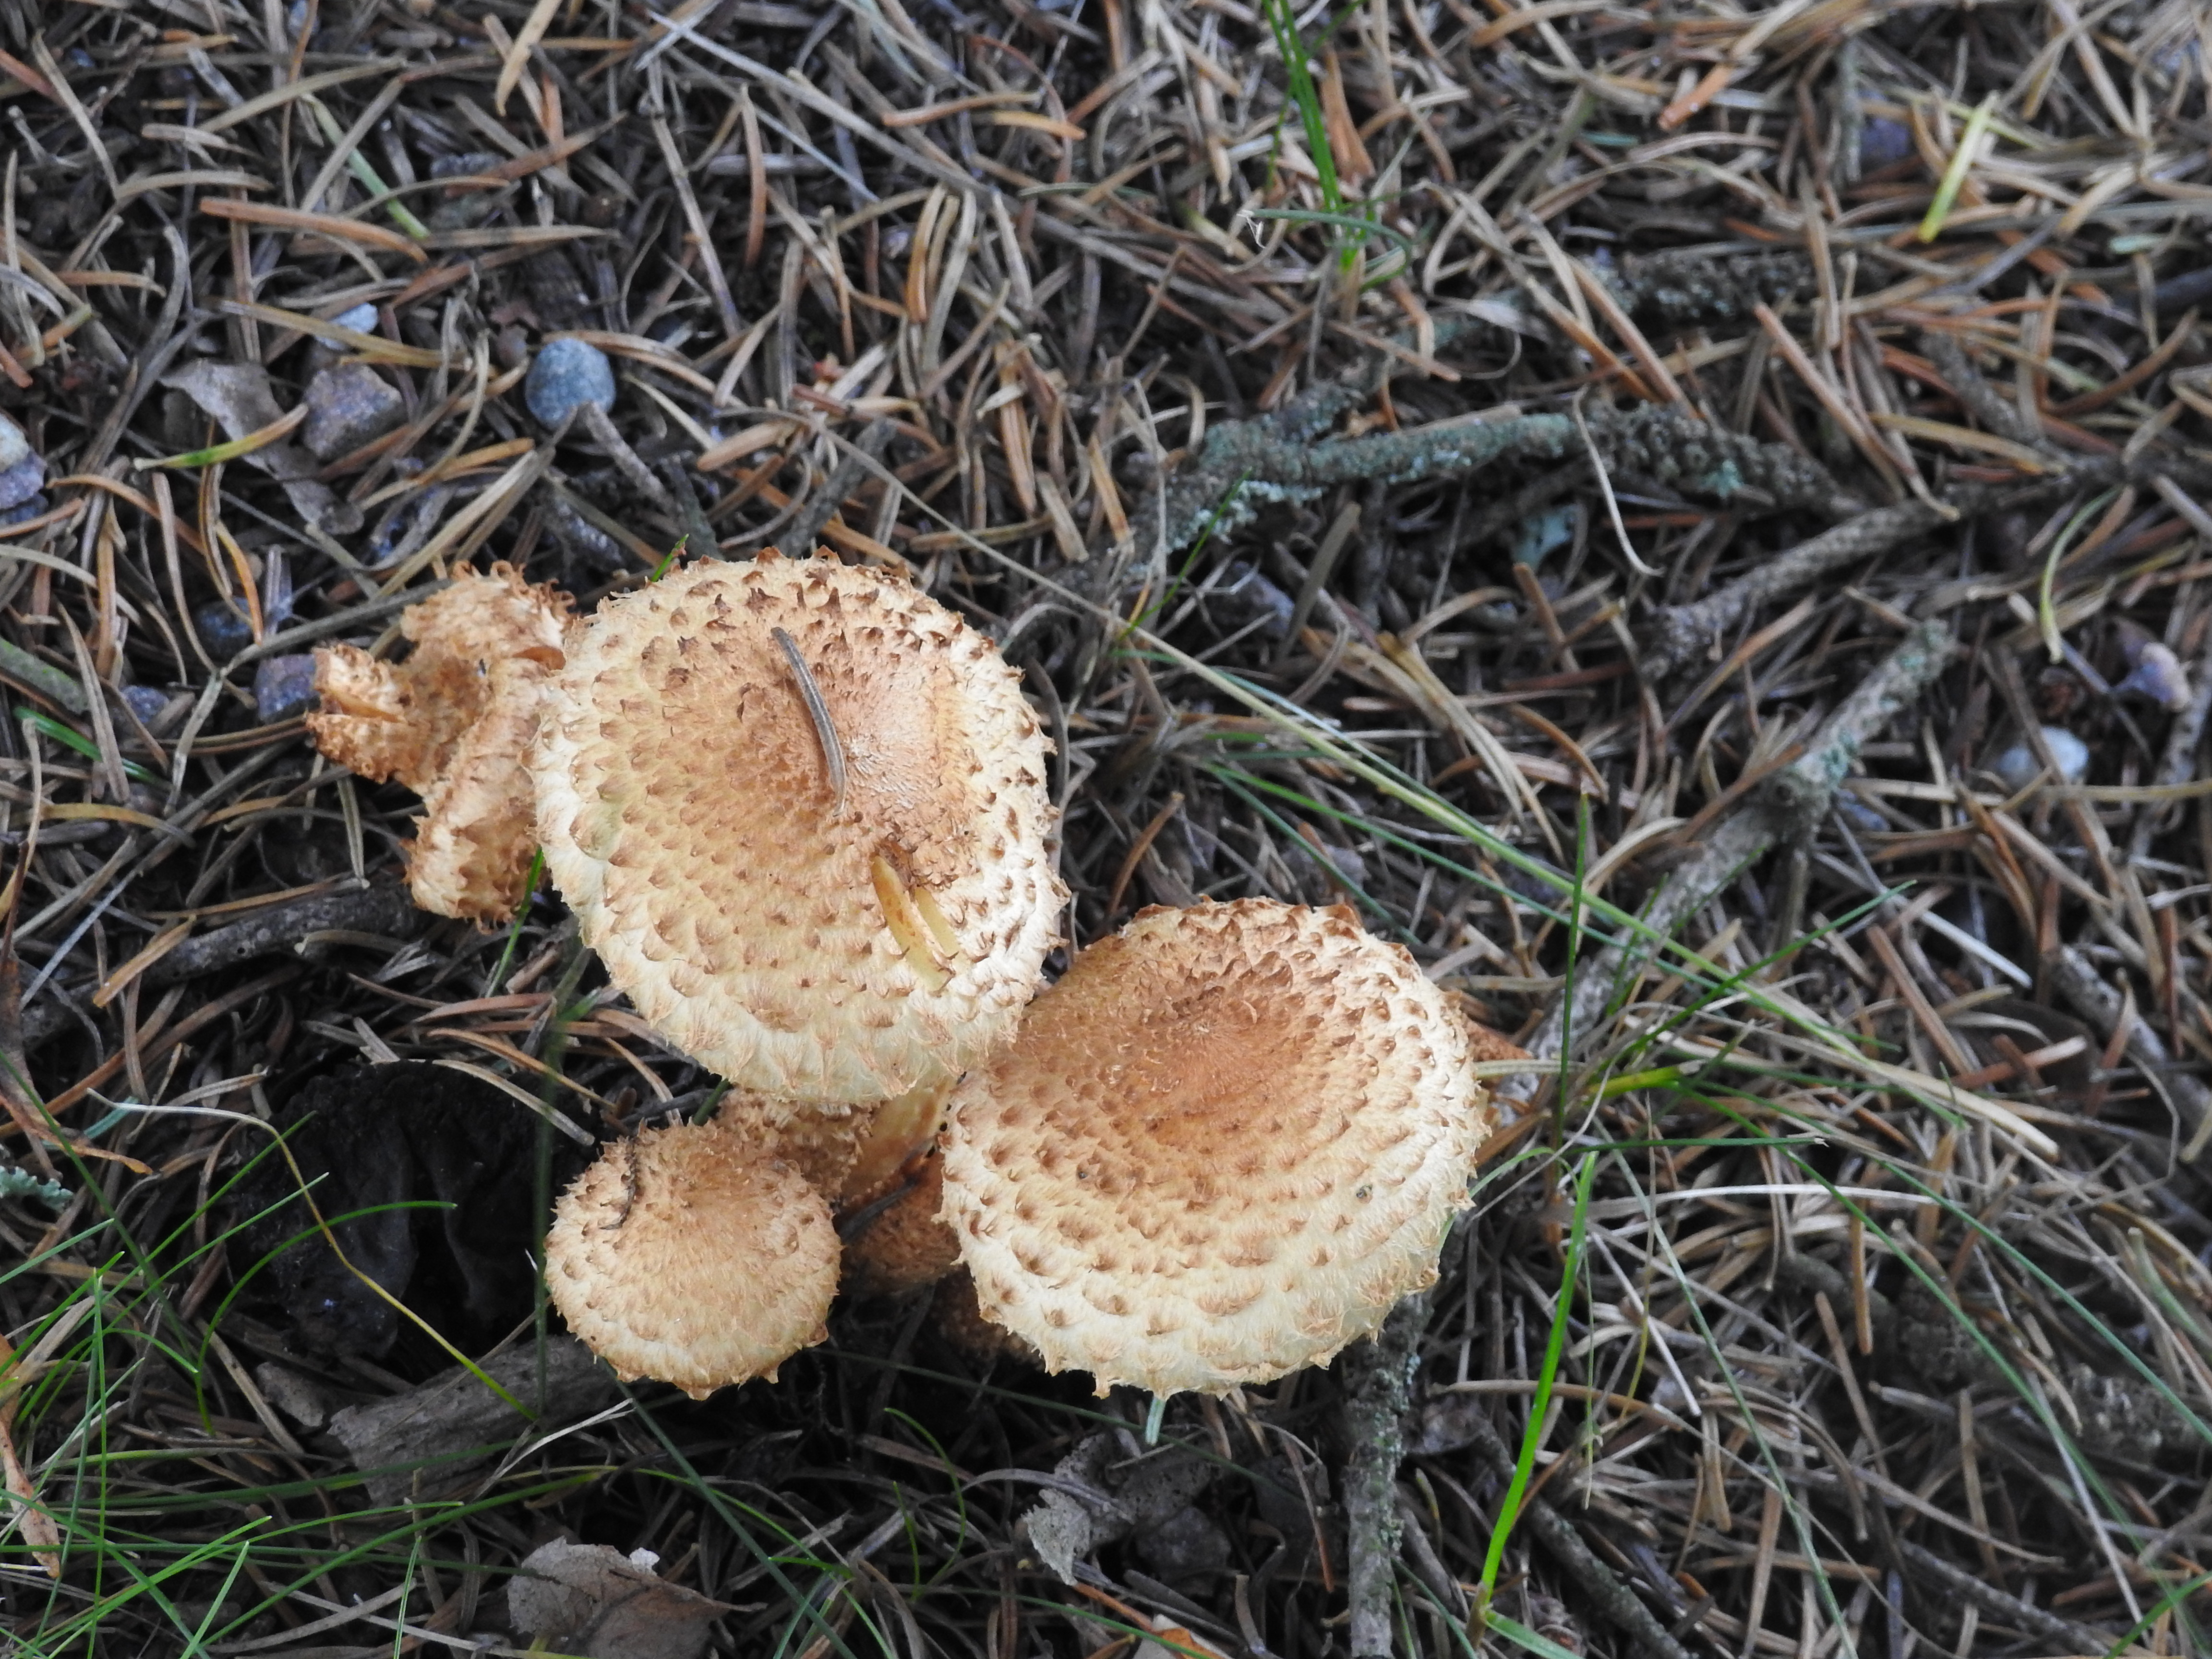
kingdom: Fungi
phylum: Basidiomycota
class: Agaricomycetes
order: Agaricales
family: Strophariaceae
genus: Pholiota
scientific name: Pholiota squarrosa
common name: Shaggy pholiota
